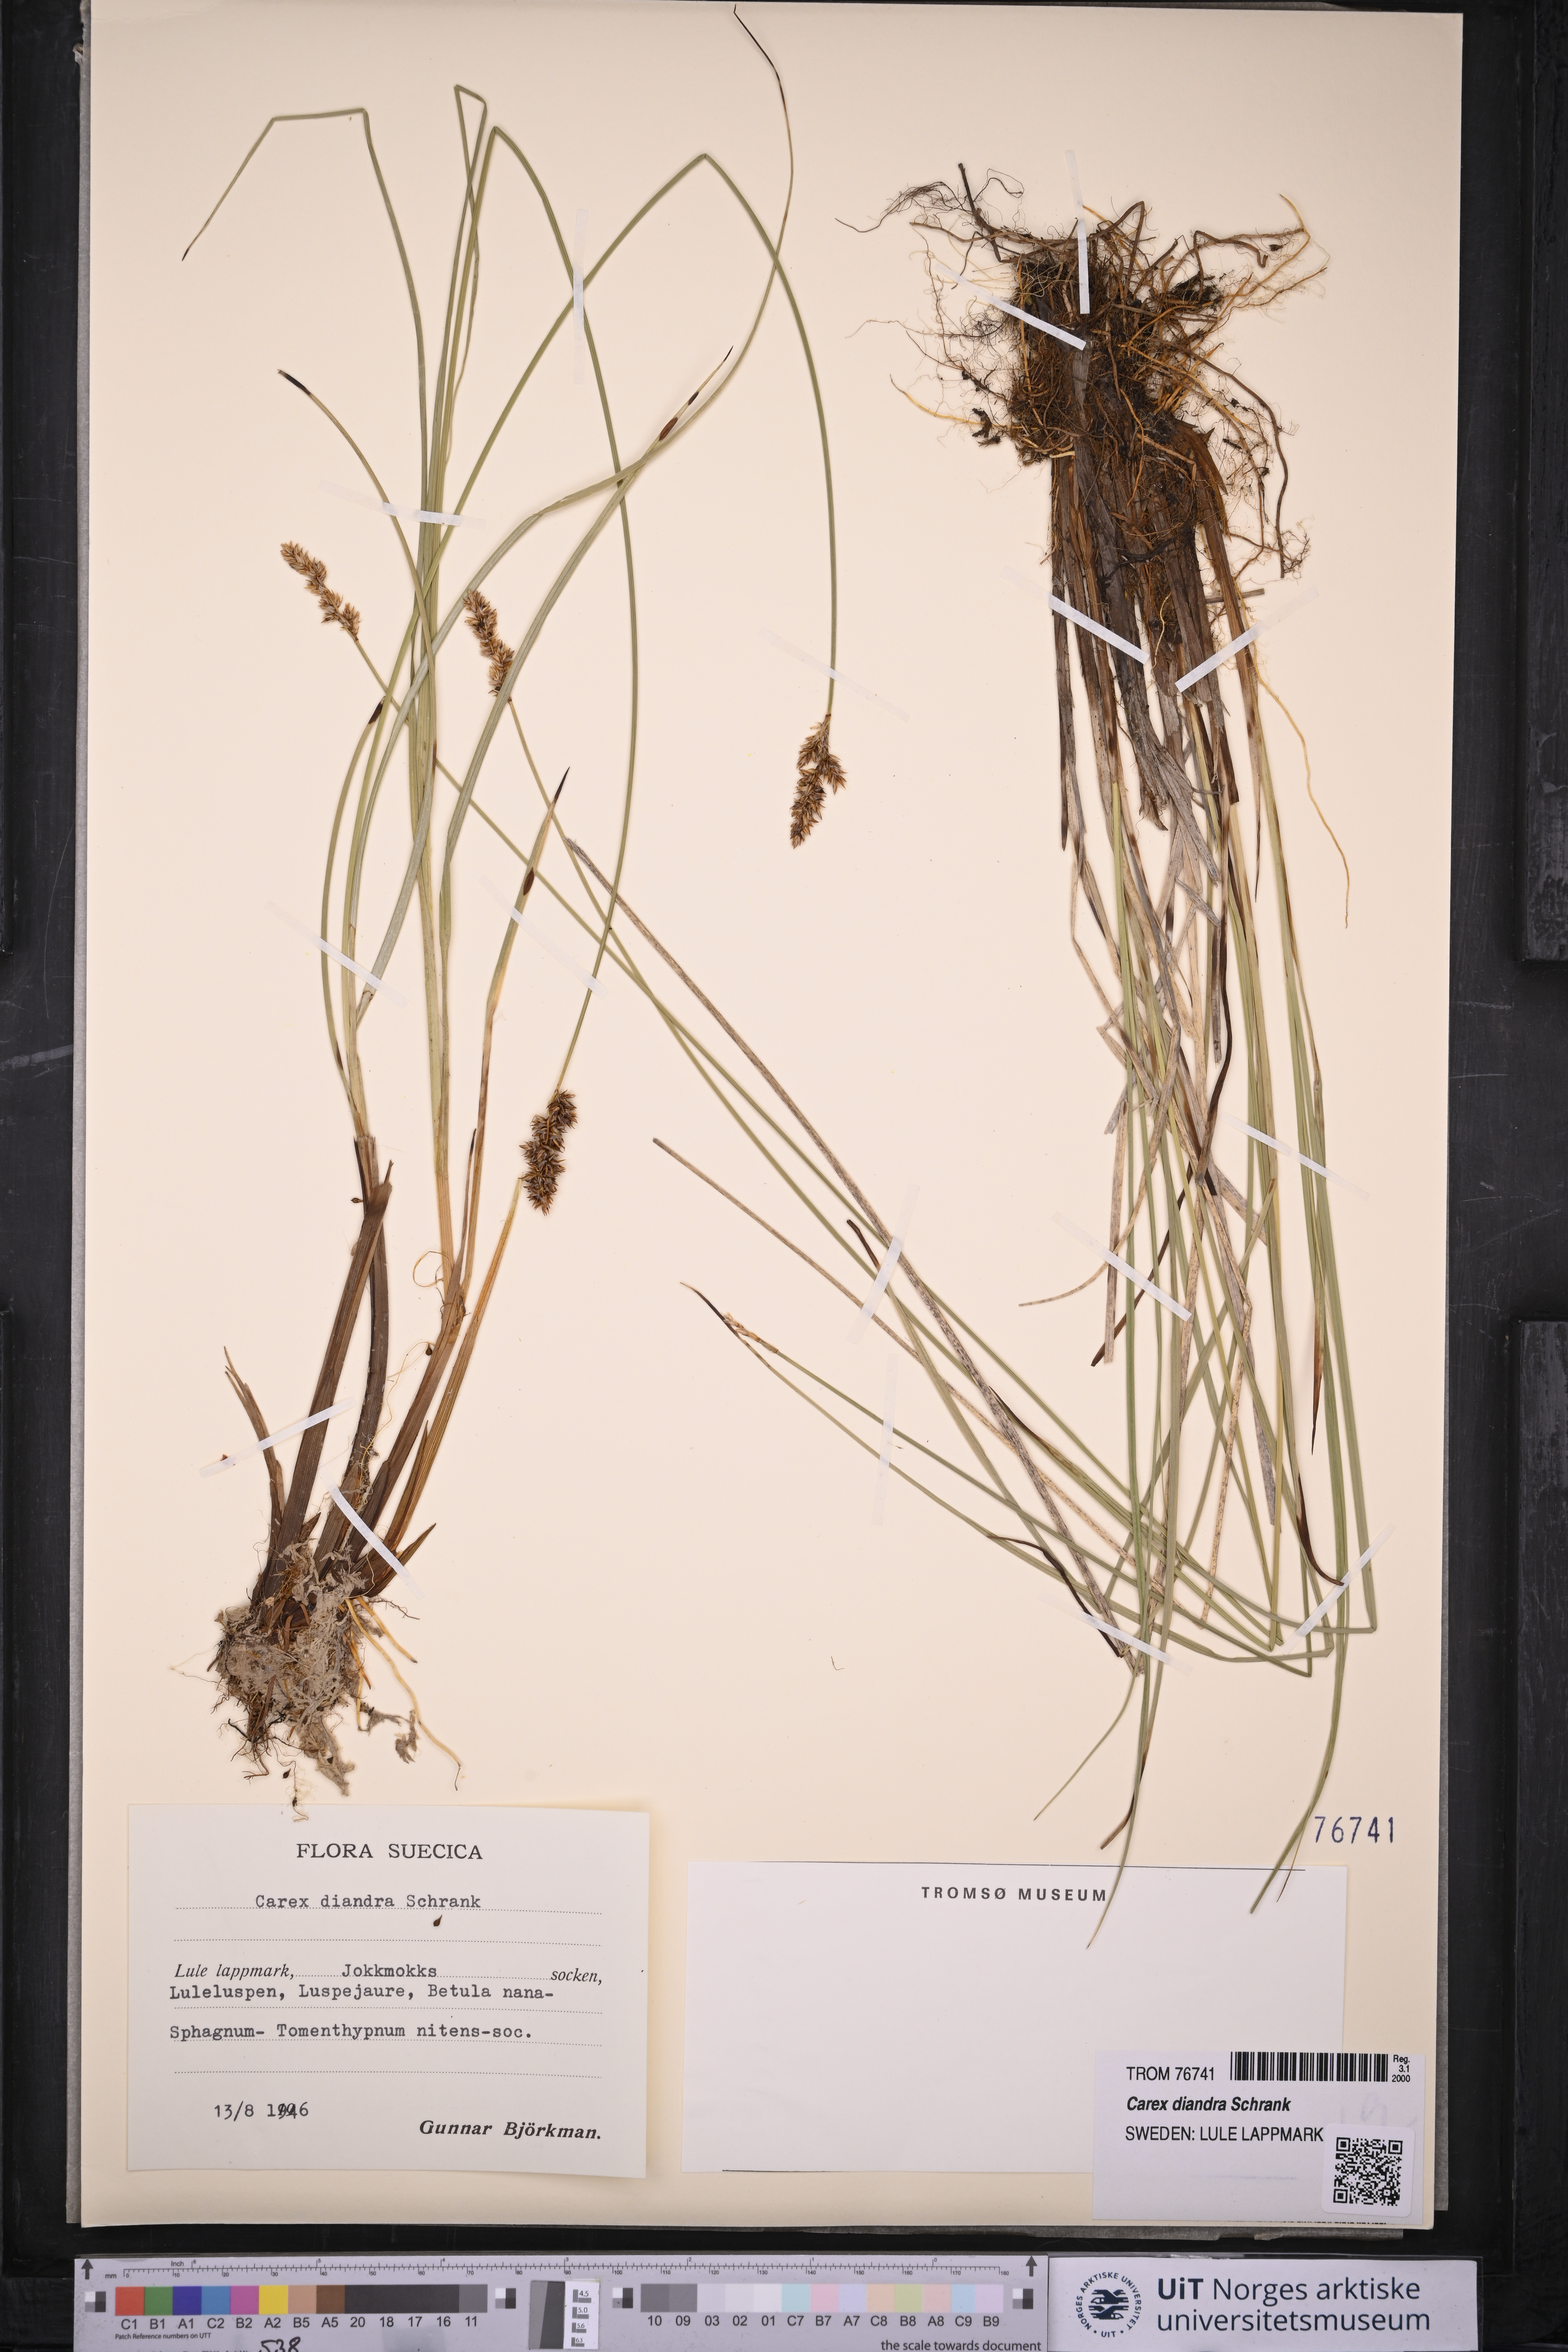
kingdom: Plantae
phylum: Tracheophyta
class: Liliopsida
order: Poales
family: Cyperaceae
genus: Carex
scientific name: Carex diandra
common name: Lesser tussock-sedge
